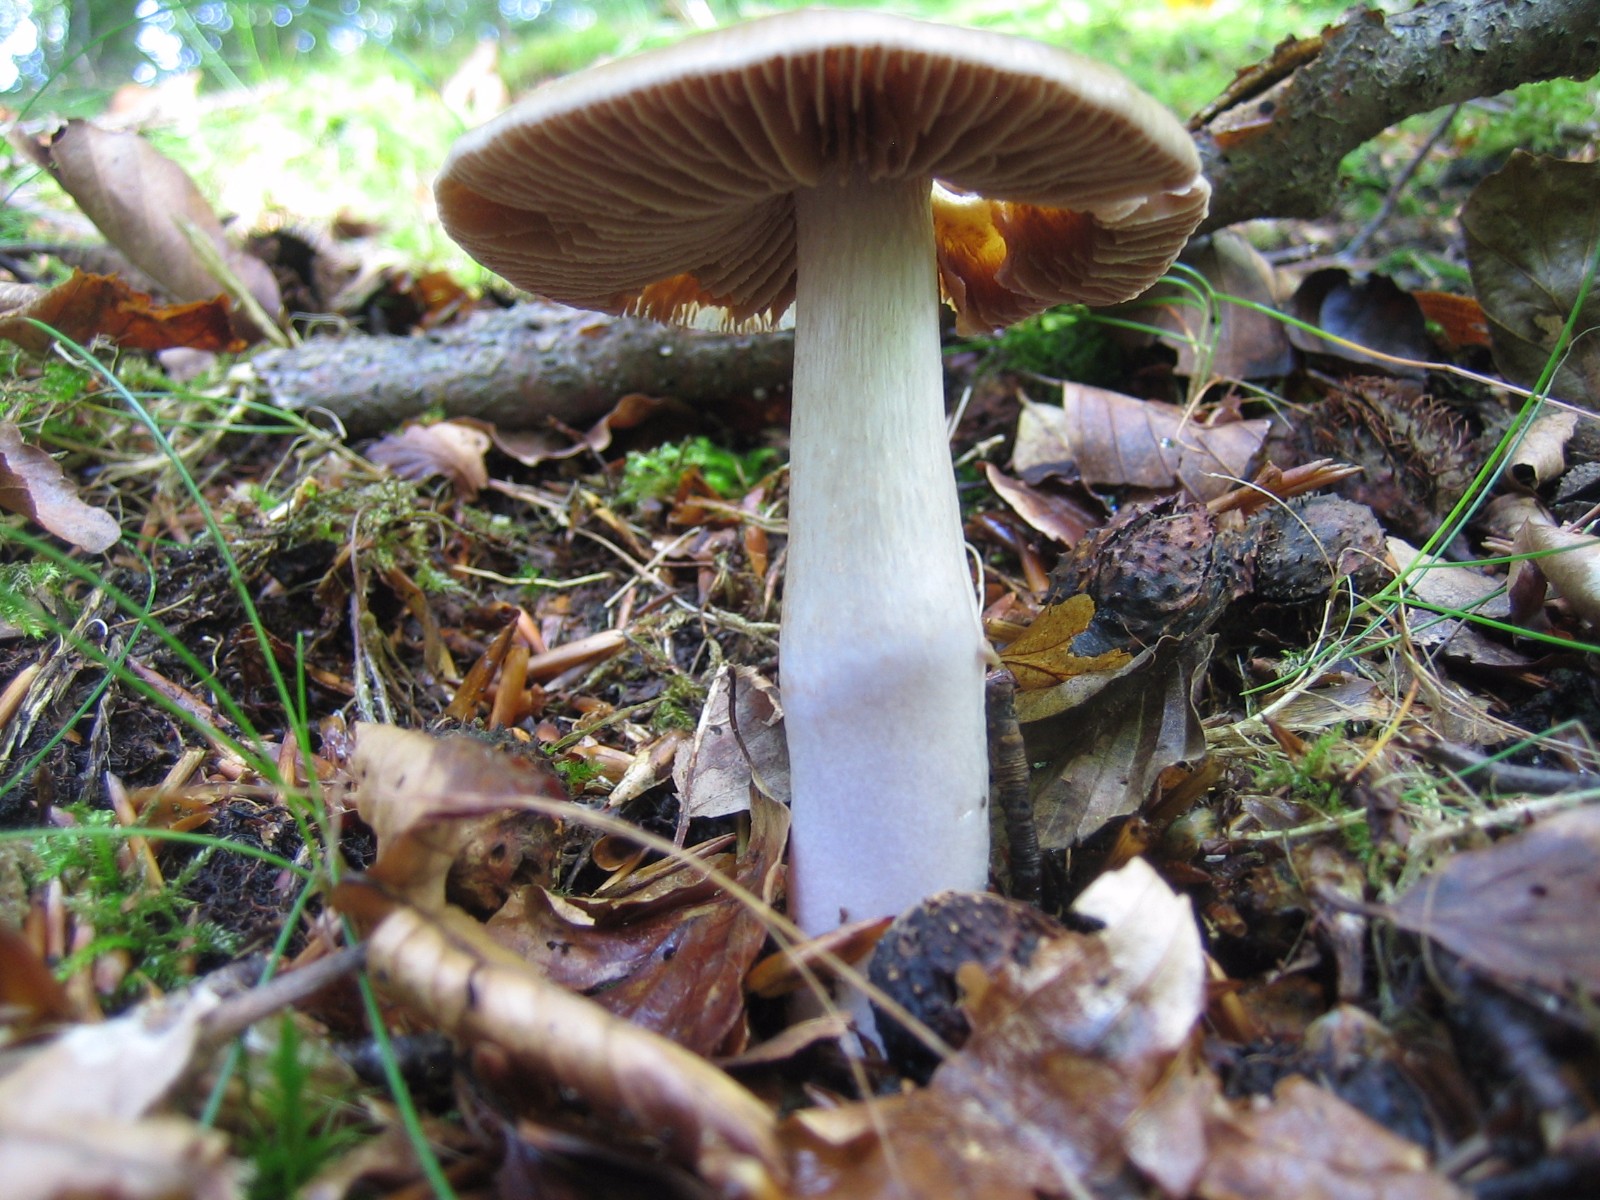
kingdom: Fungi
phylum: Basidiomycota
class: Agaricomycetes
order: Agaricales
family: Cortinariaceae
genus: Cortinarius
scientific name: Cortinarius elatior
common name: høj slørhat
